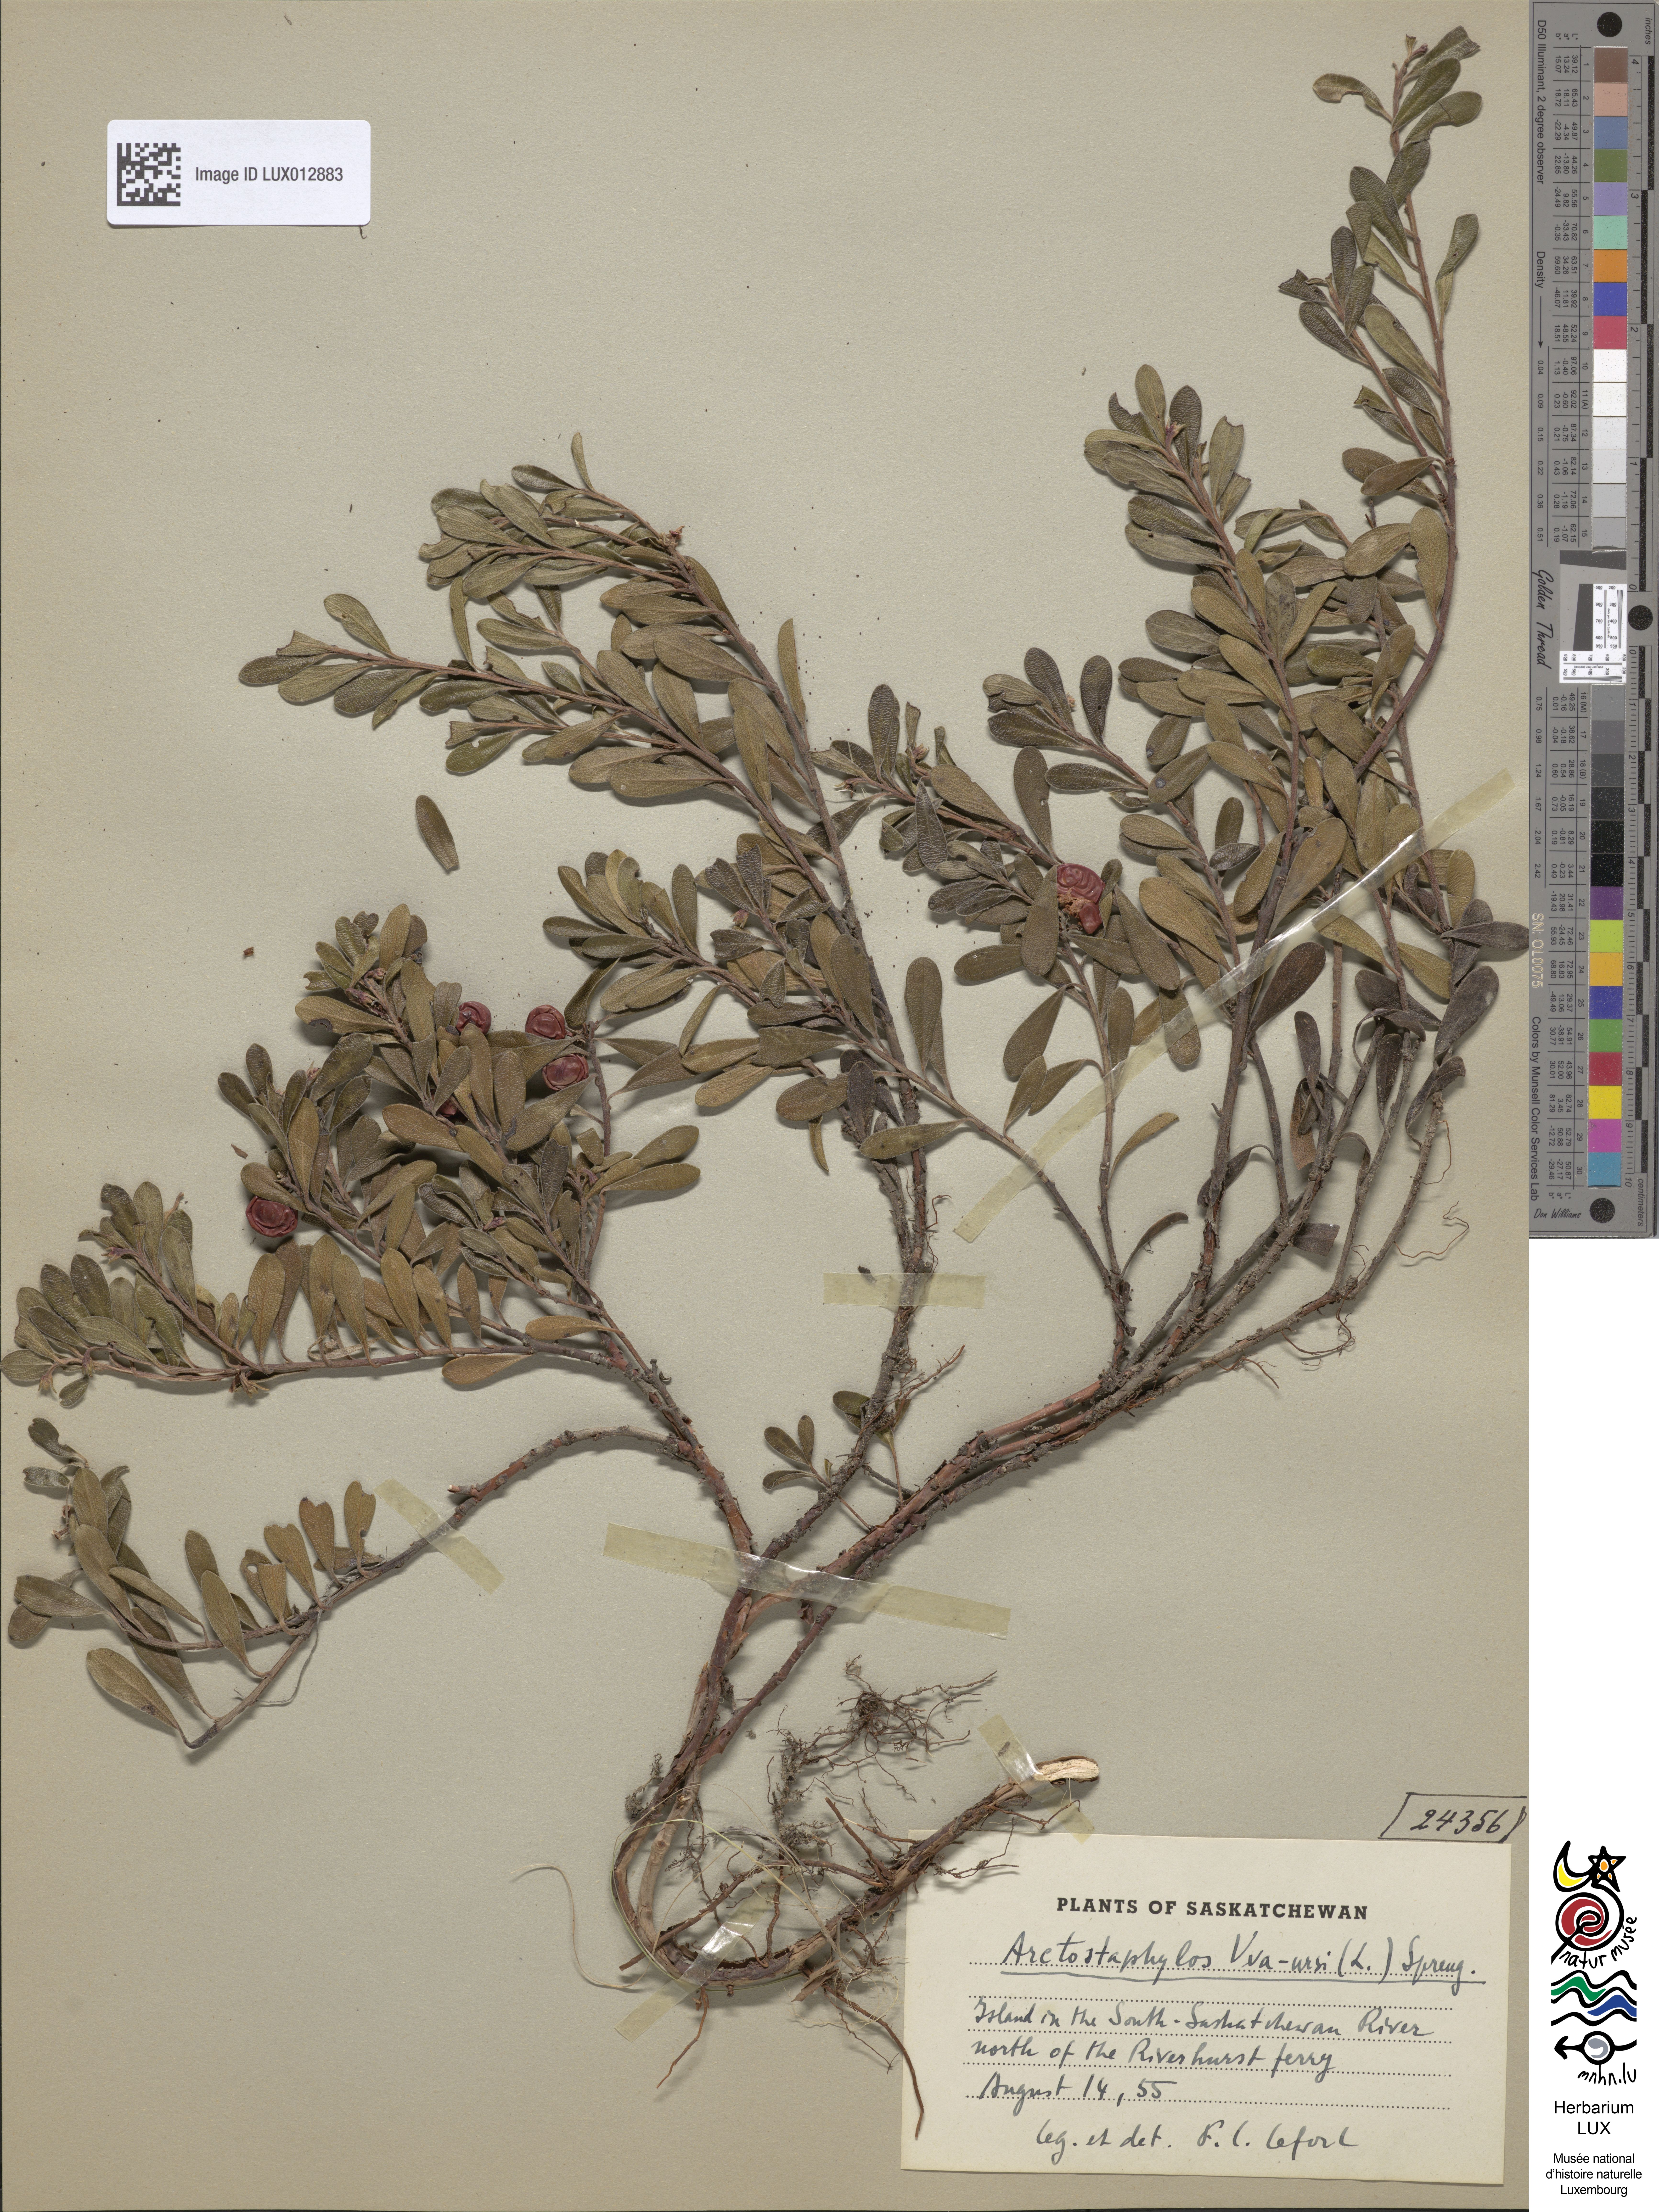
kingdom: Plantae
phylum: Tracheophyta
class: Magnoliopsida
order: Ericales
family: Ericaceae
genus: Arctostaphylos
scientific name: Arctostaphylos uva-ursi
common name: Bearberry
